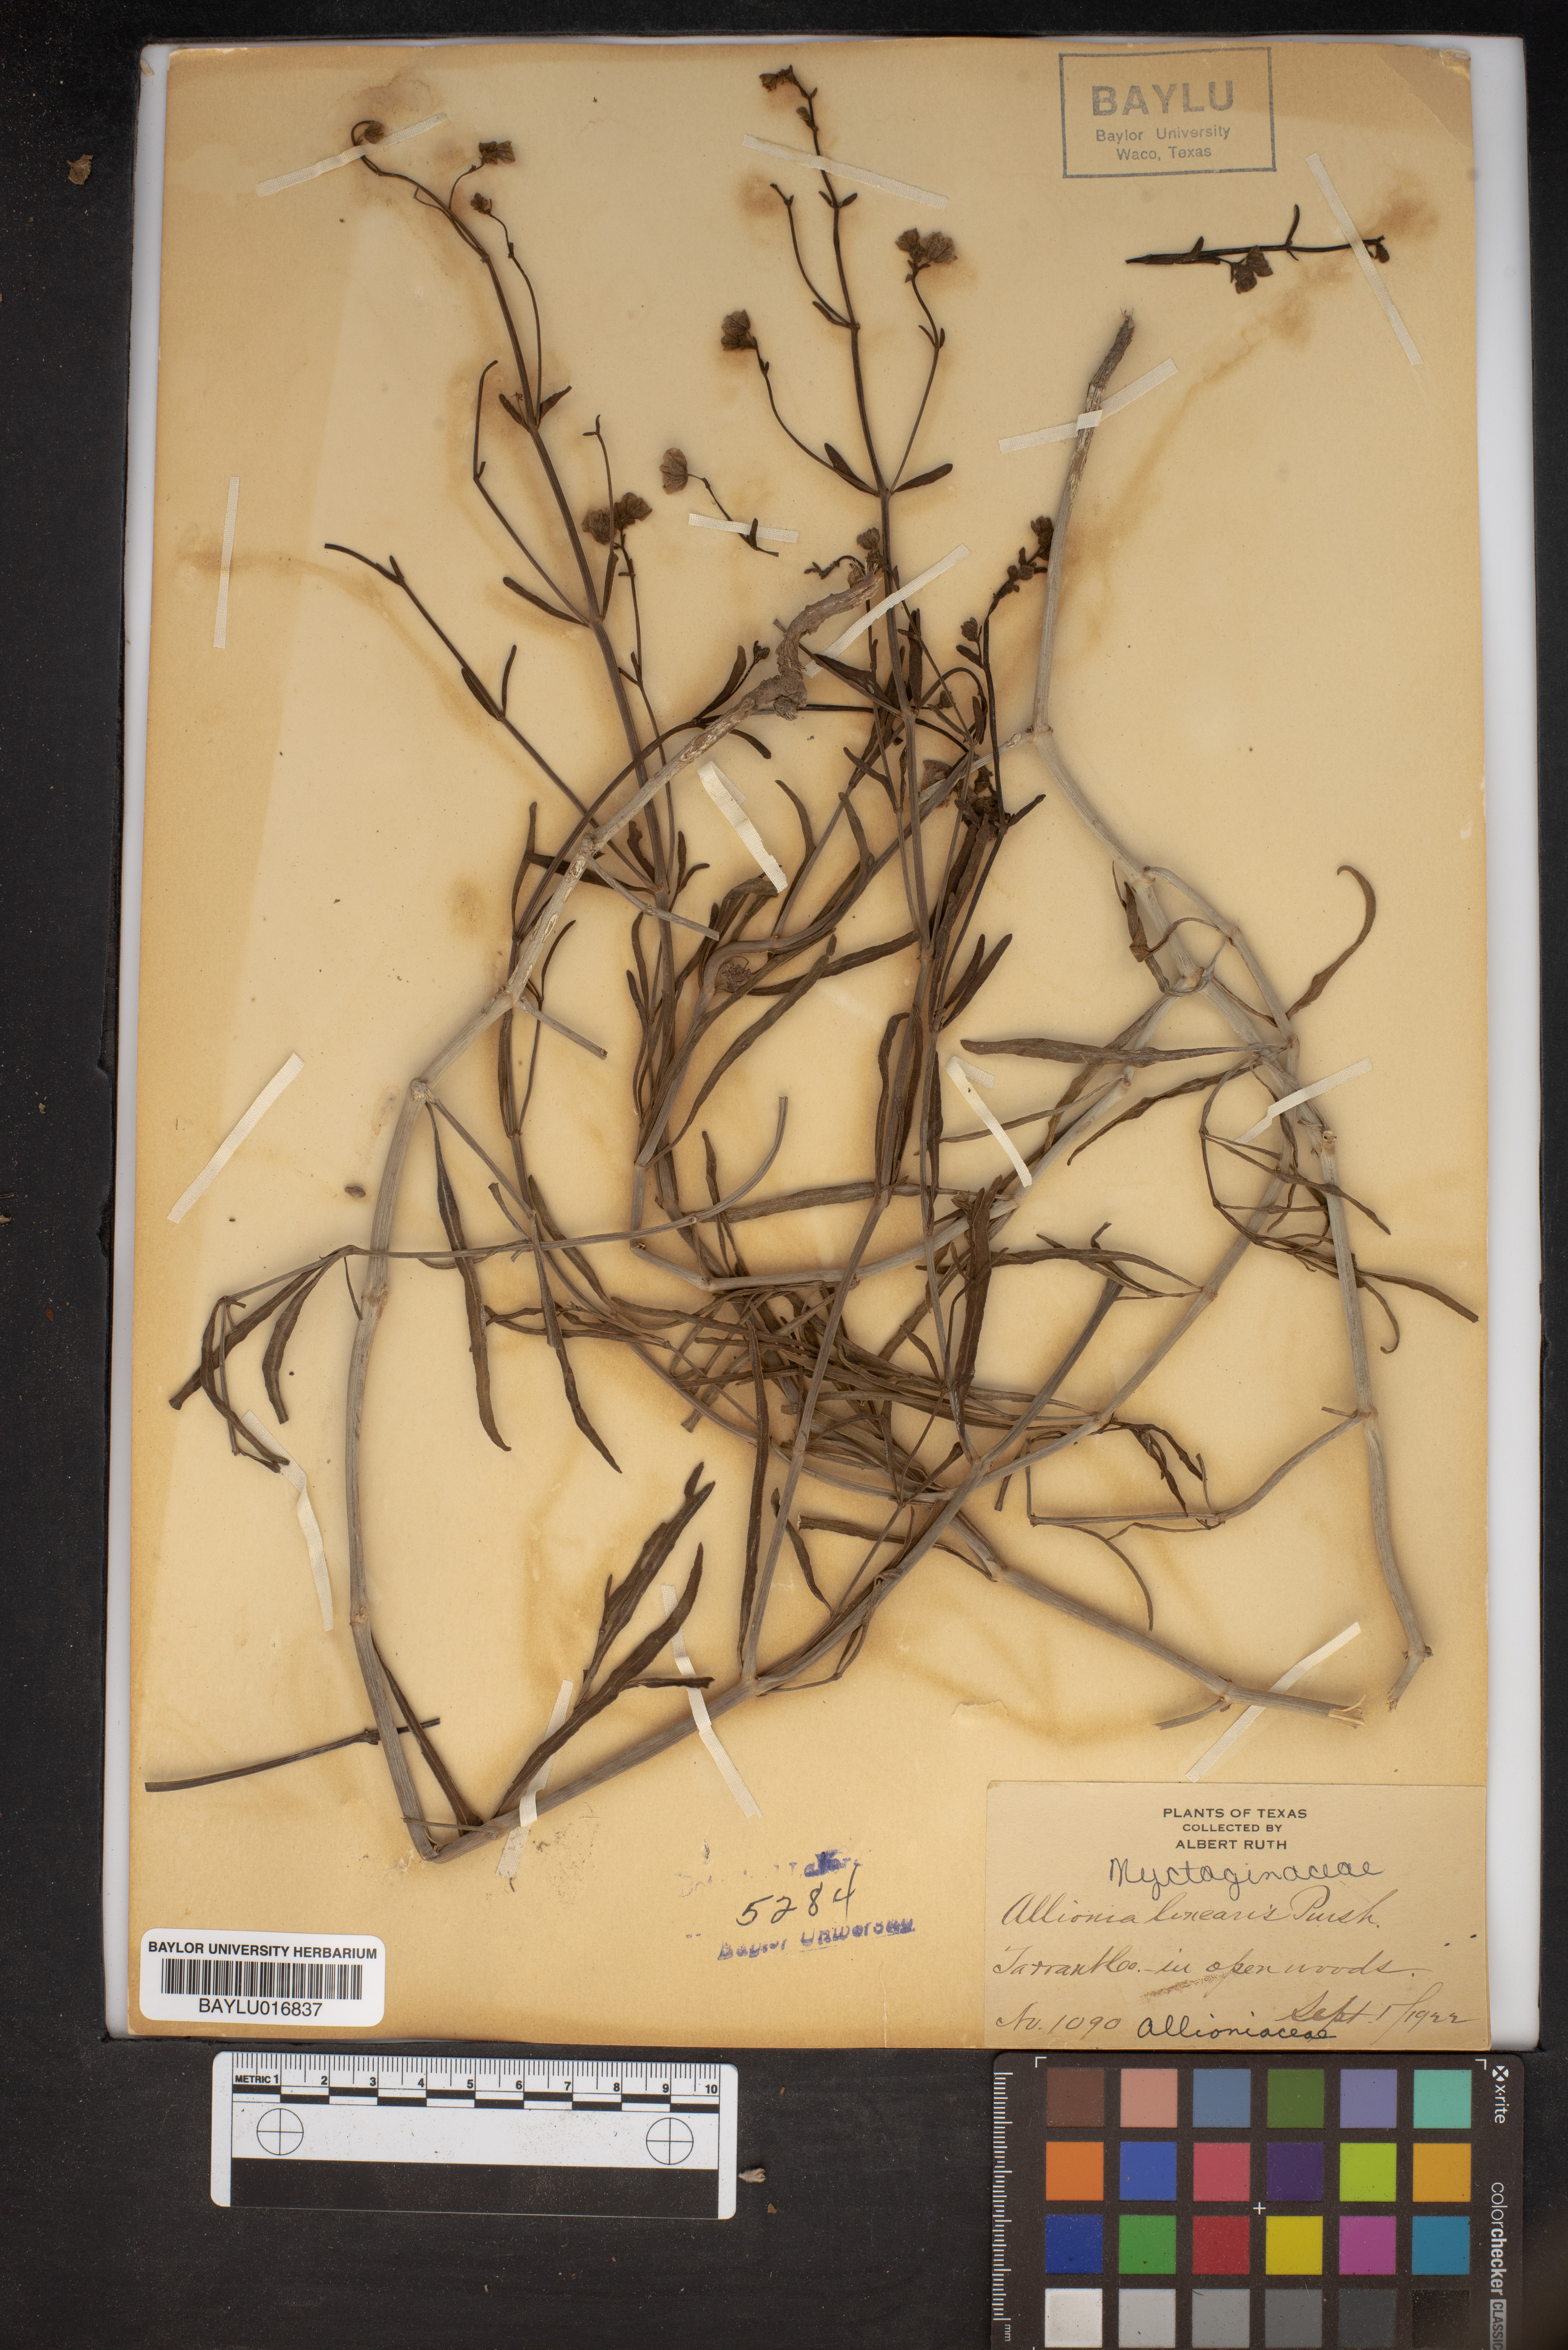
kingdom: Plantae
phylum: Tracheophyta
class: Magnoliopsida
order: Caryophyllales
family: Nyctaginaceae
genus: Mirabilis
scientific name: Mirabilis linearis
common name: Linear-leaved four-o'clock
